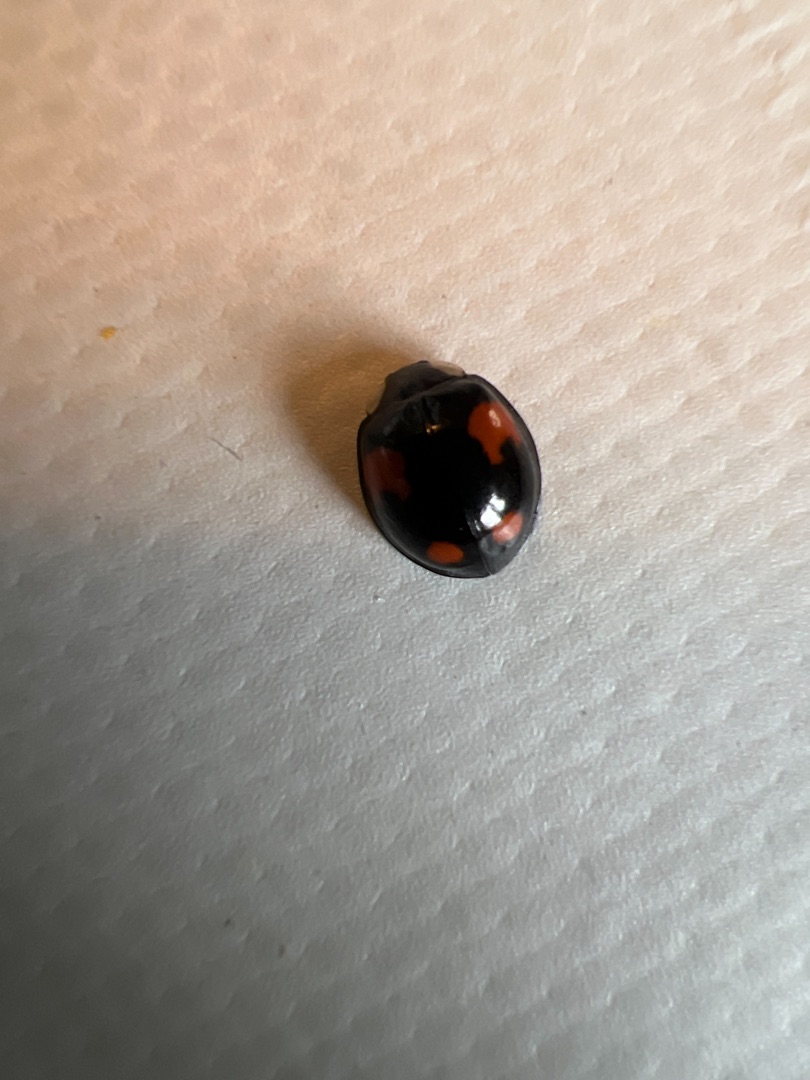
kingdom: Animalia
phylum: Arthropoda
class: Insecta
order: Coleoptera
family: Coccinellidae
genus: Harmonia
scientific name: Harmonia axyridis
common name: Harlekinmariehøne
